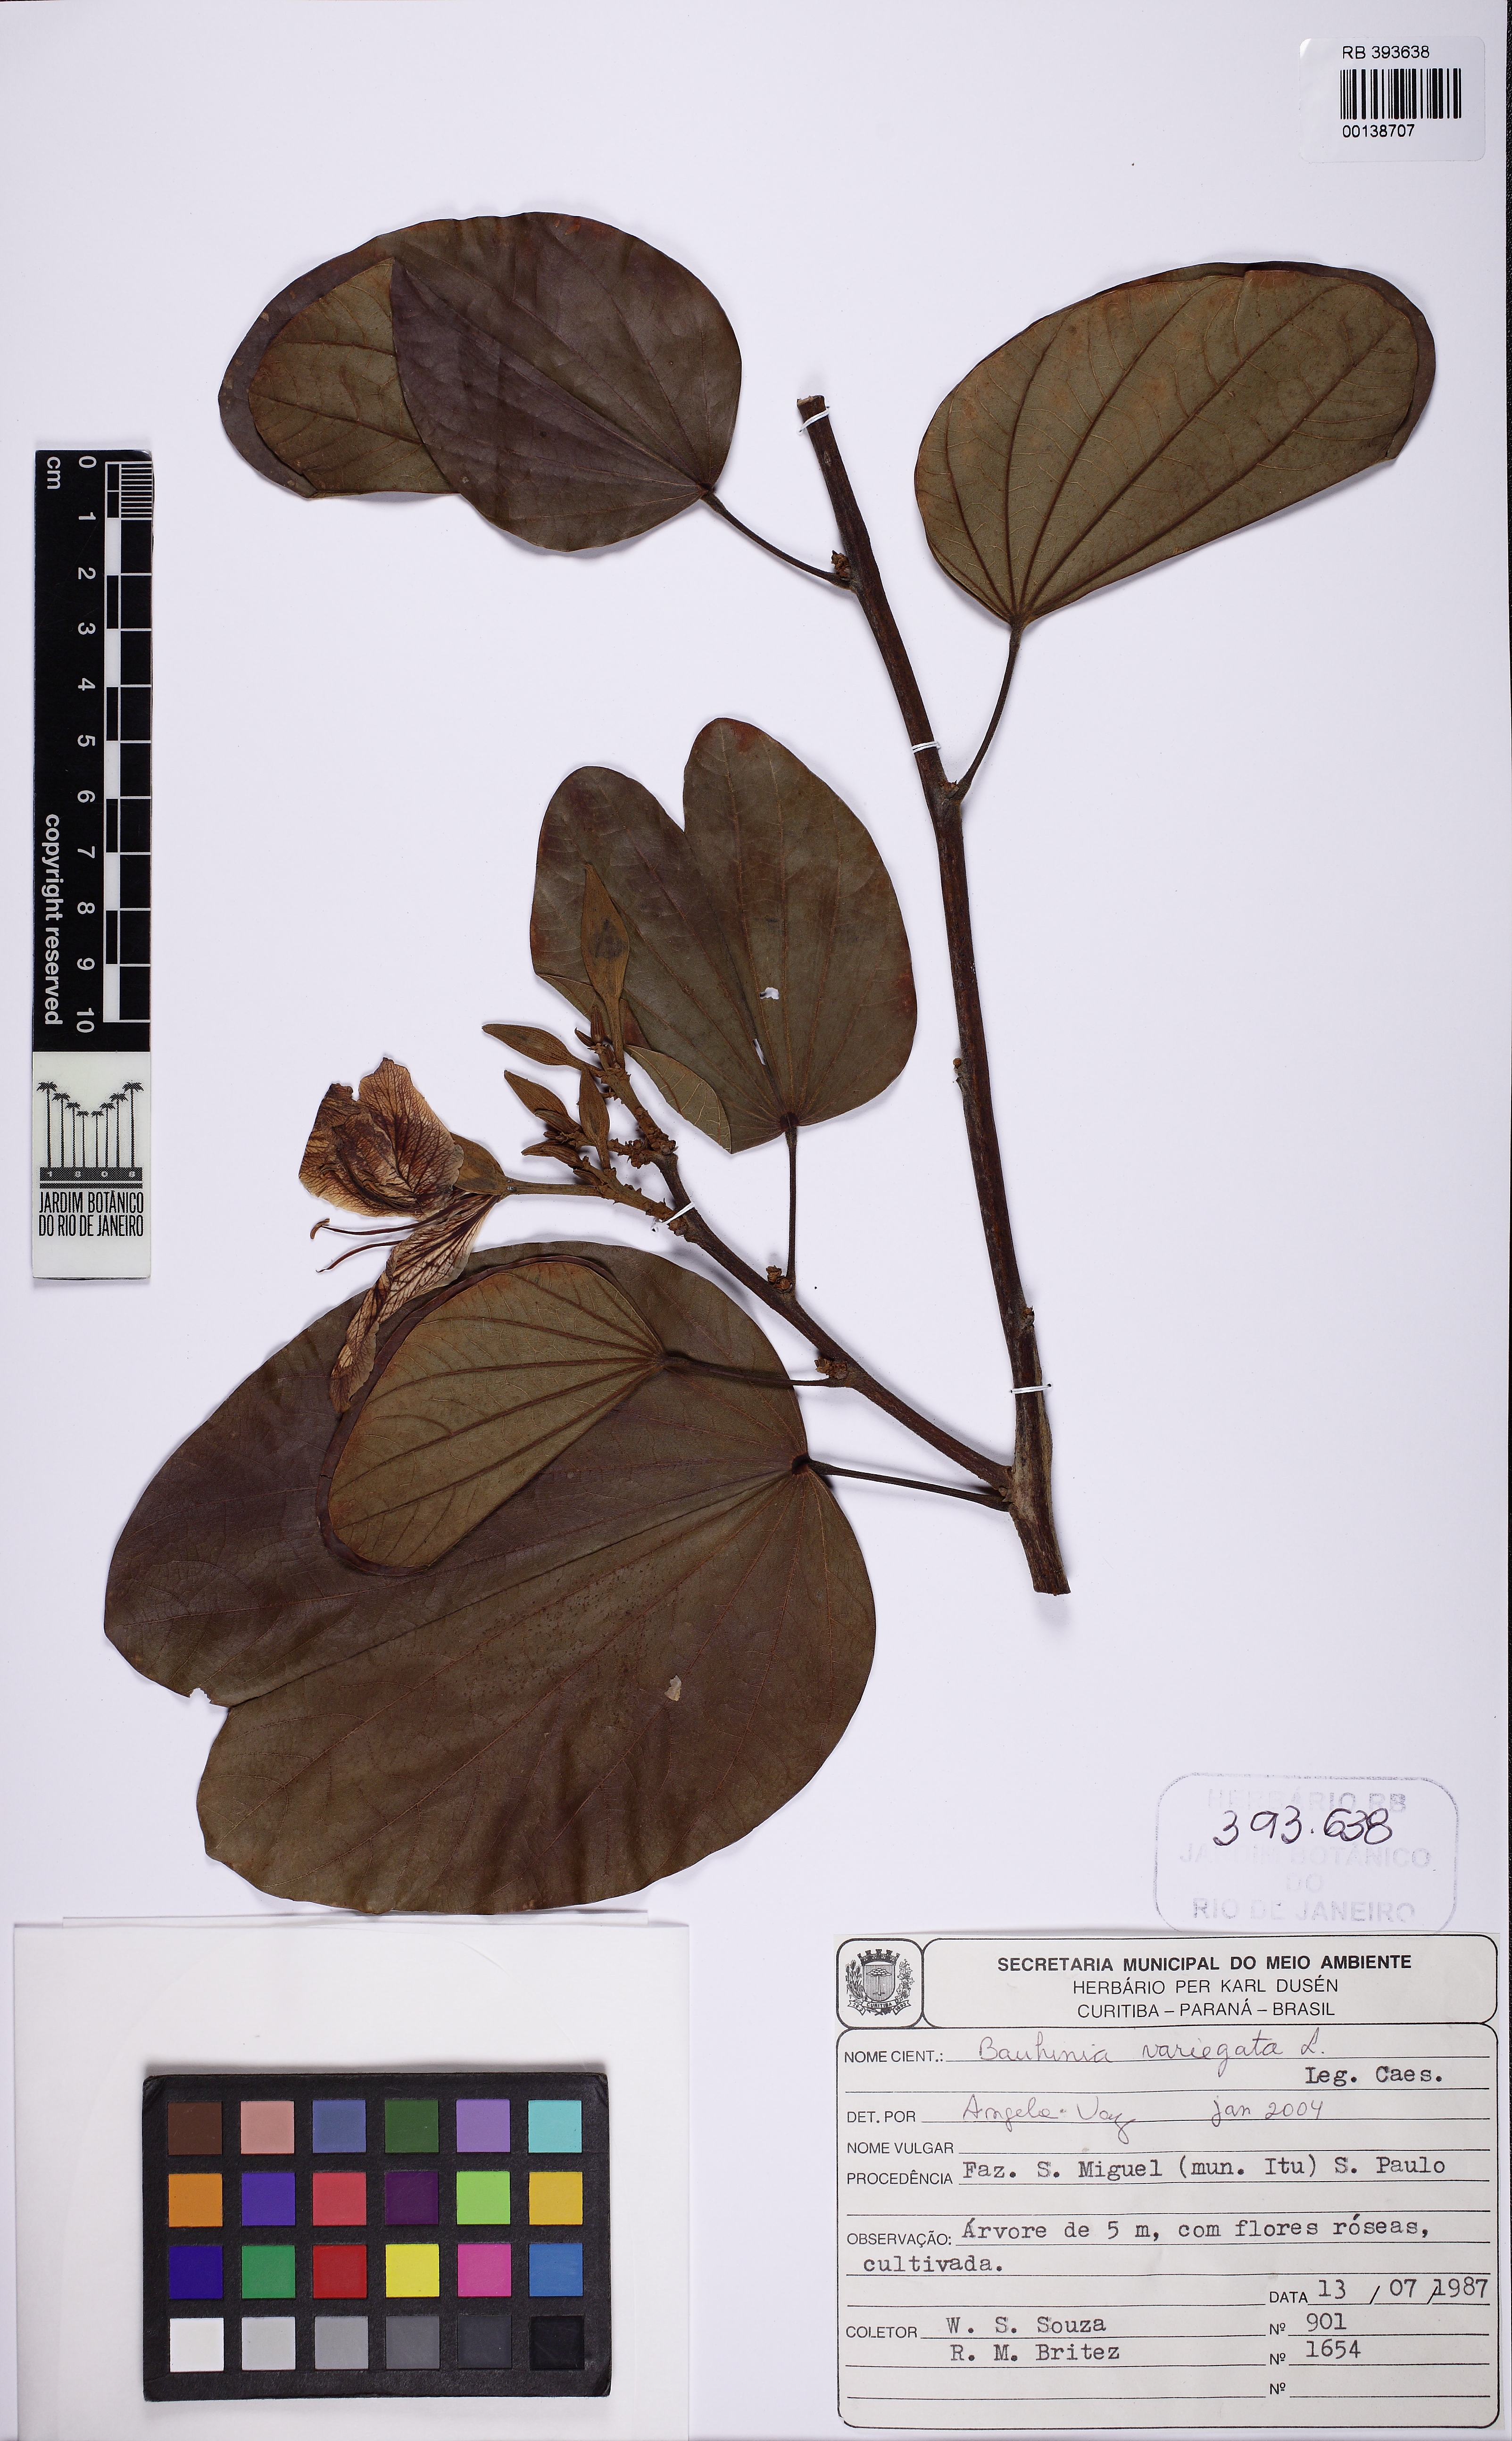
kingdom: Plantae
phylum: Tracheophyta
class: Magnoliopsida
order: Fabales
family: Fabaceae
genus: Bauhinia
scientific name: Bauhinia variegata
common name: Mountain ebony
